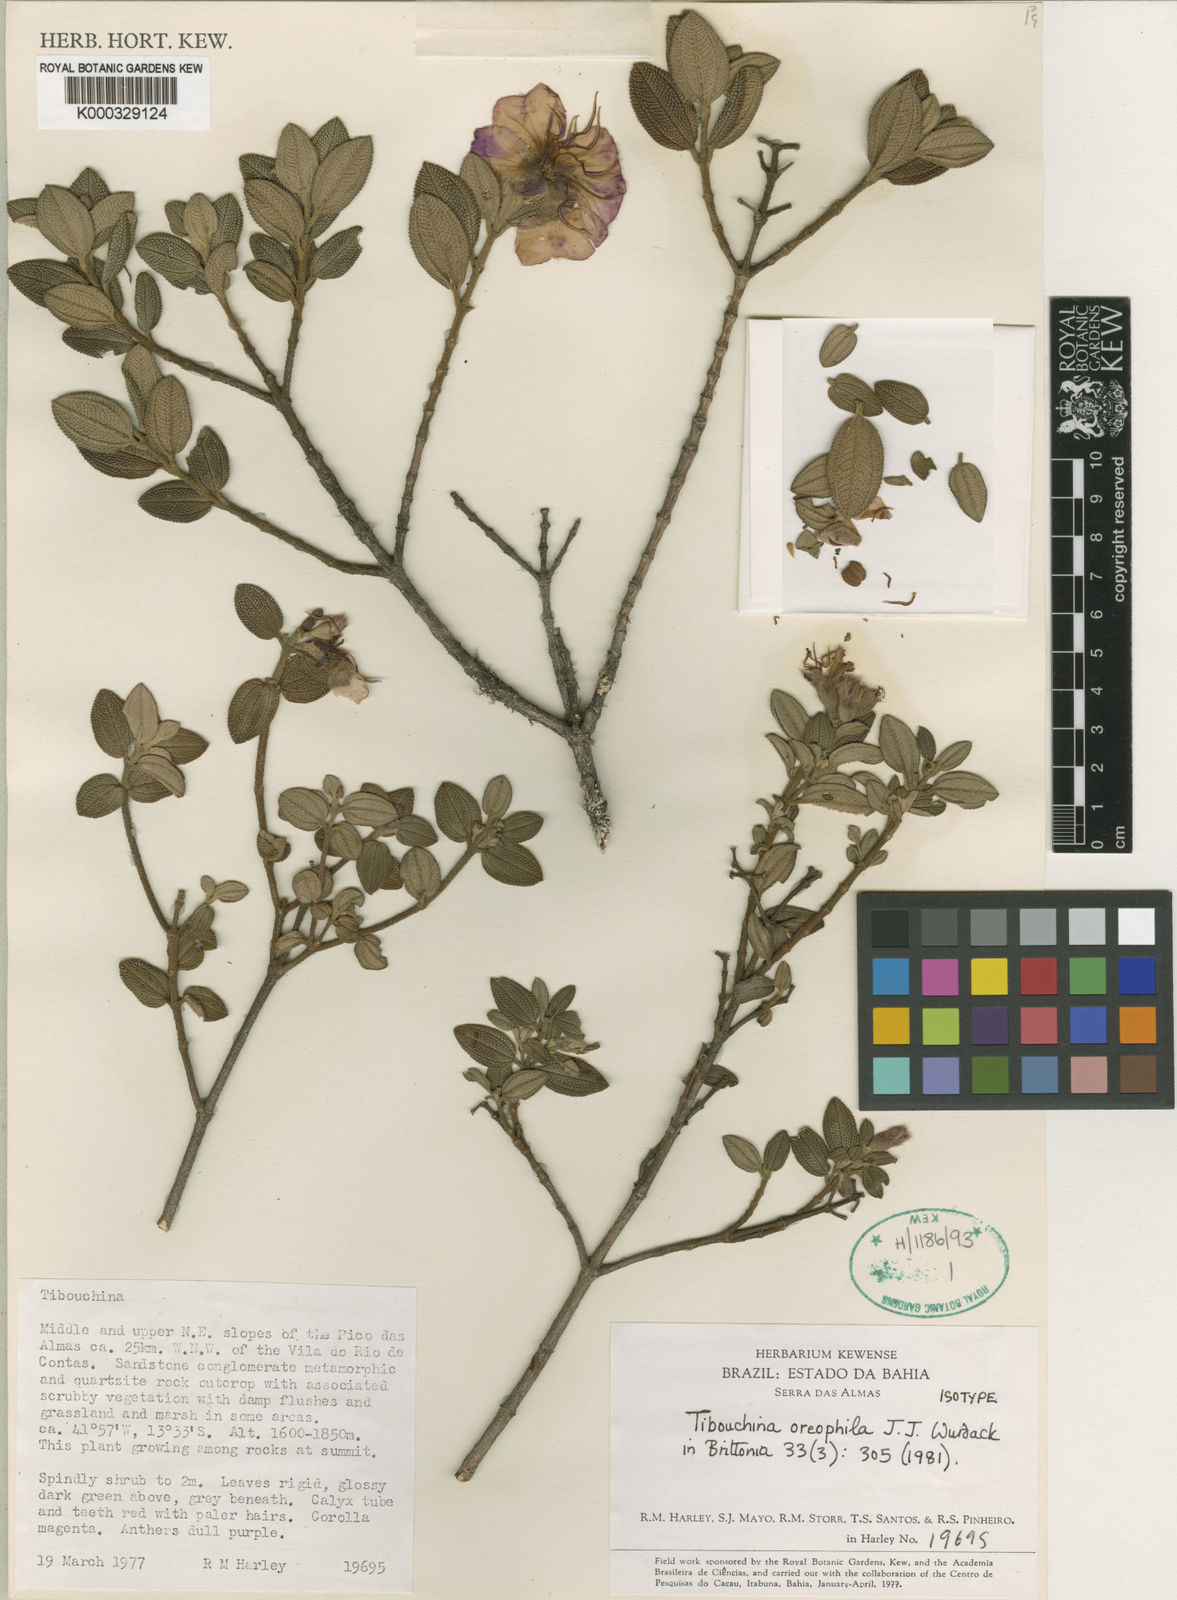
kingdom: Plantae
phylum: Tracheophyta
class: Magnoliopsida
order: Myrtales
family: Melastomataceae
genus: Pleroma
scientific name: Pleroma oreophilum
